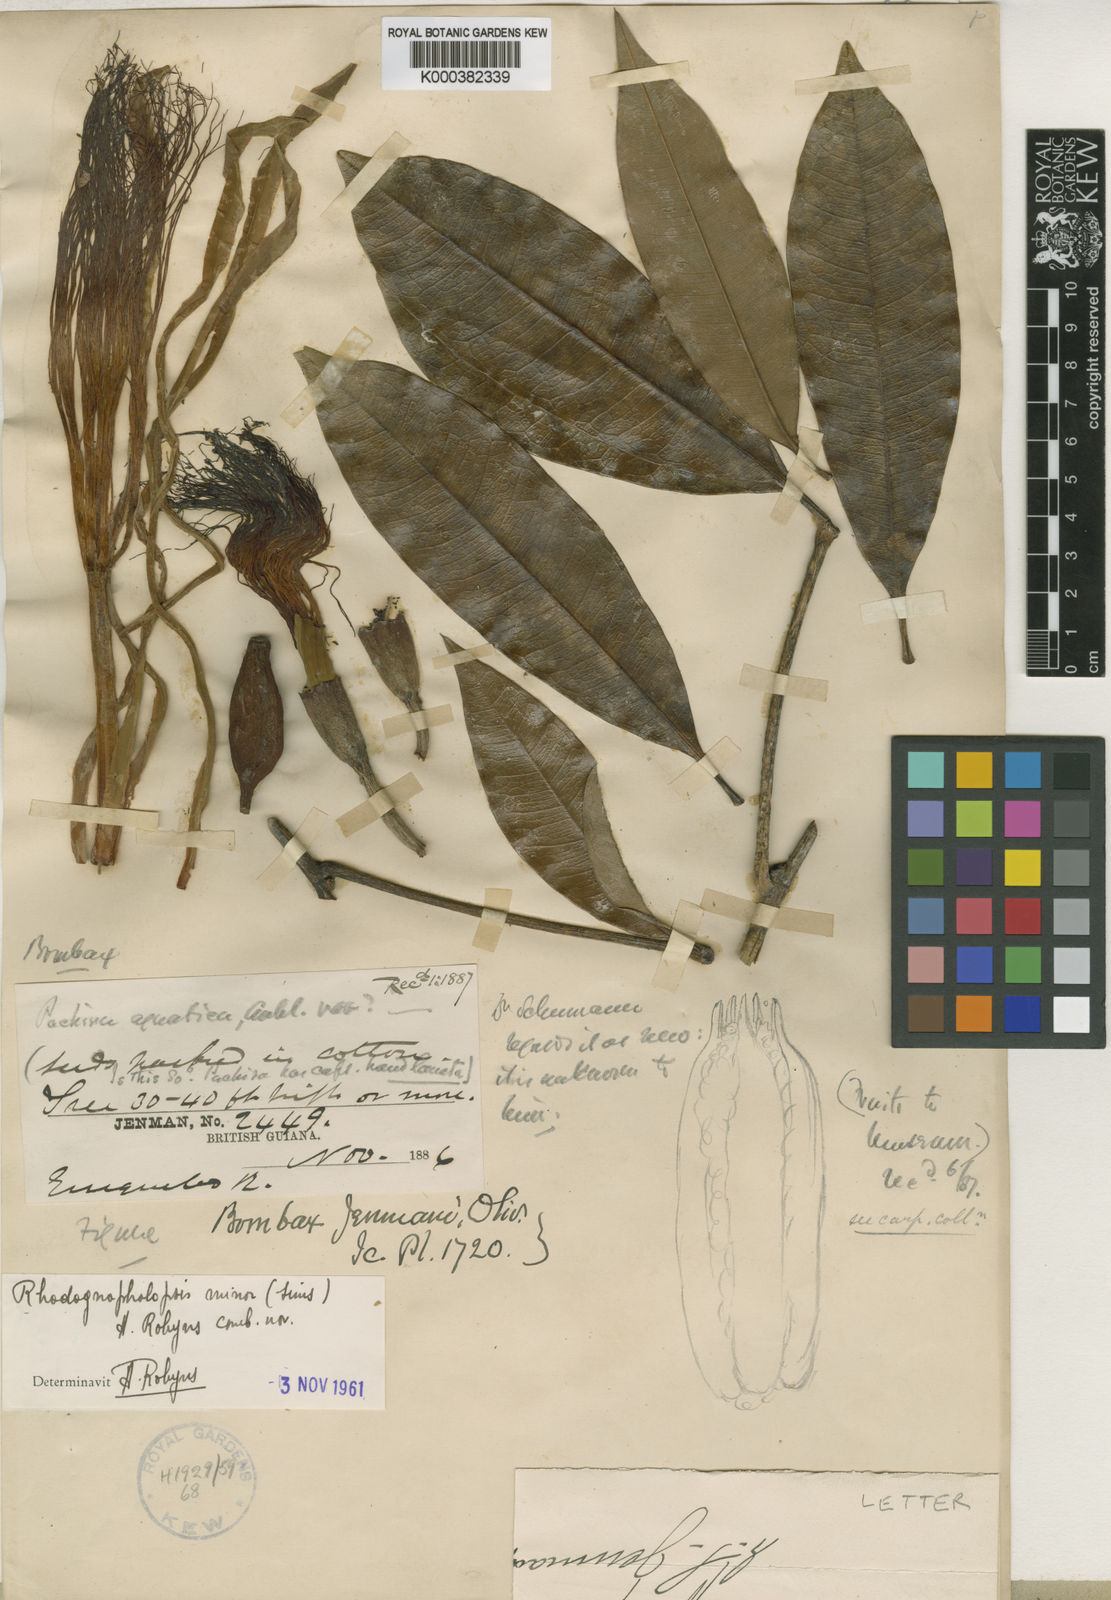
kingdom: Plantae
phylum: Tracheophyta
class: Magnoliopsida
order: Malvales
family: Malvaceae
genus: Pachira
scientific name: Pachira minor
